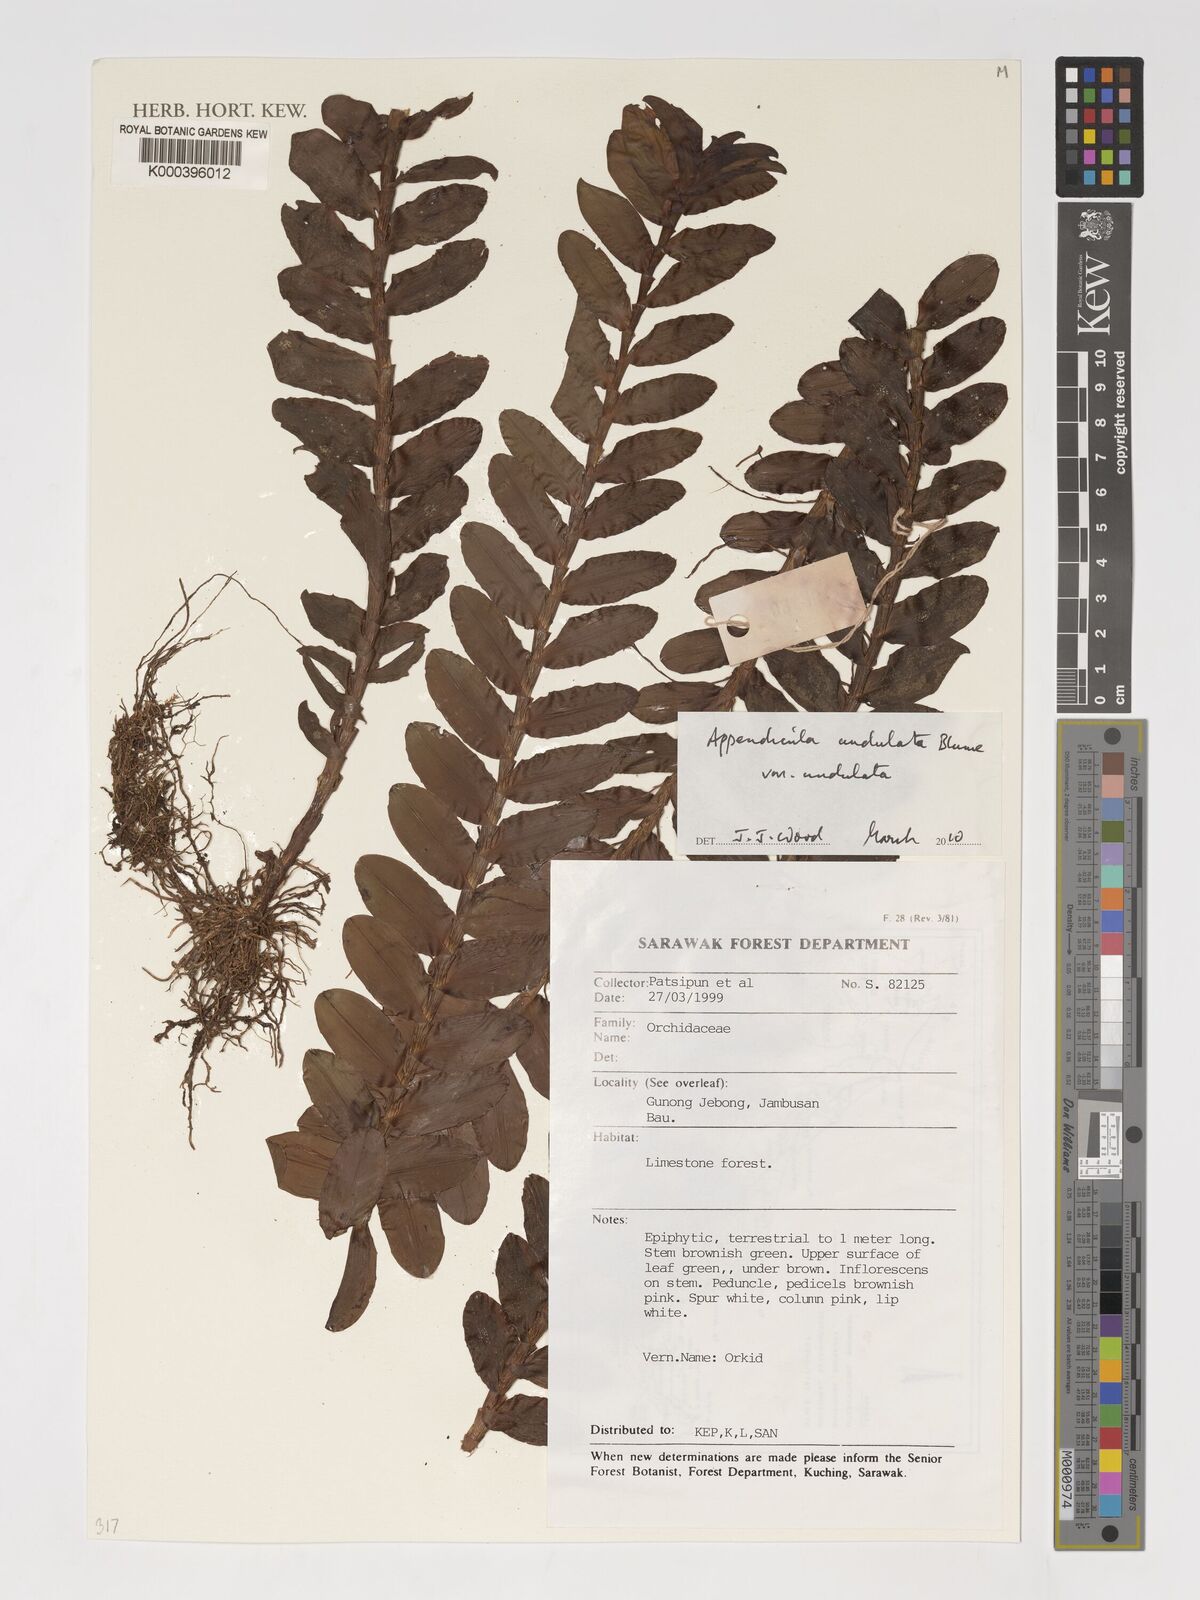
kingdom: Plantae
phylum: Tracheophyta
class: Liliopsida
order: Asparagales
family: Orchidaceae
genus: Appendicula
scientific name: Appendicula undulata
